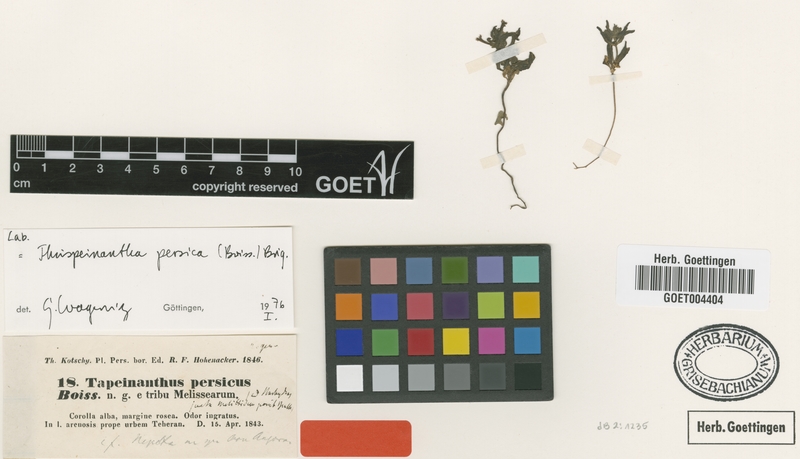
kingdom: Plantae
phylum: Tracheophyta
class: Magnoliopsida
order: Lamiales
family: Lamiaceae
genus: Thuspeinanta
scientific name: Thuspeinanta persica
